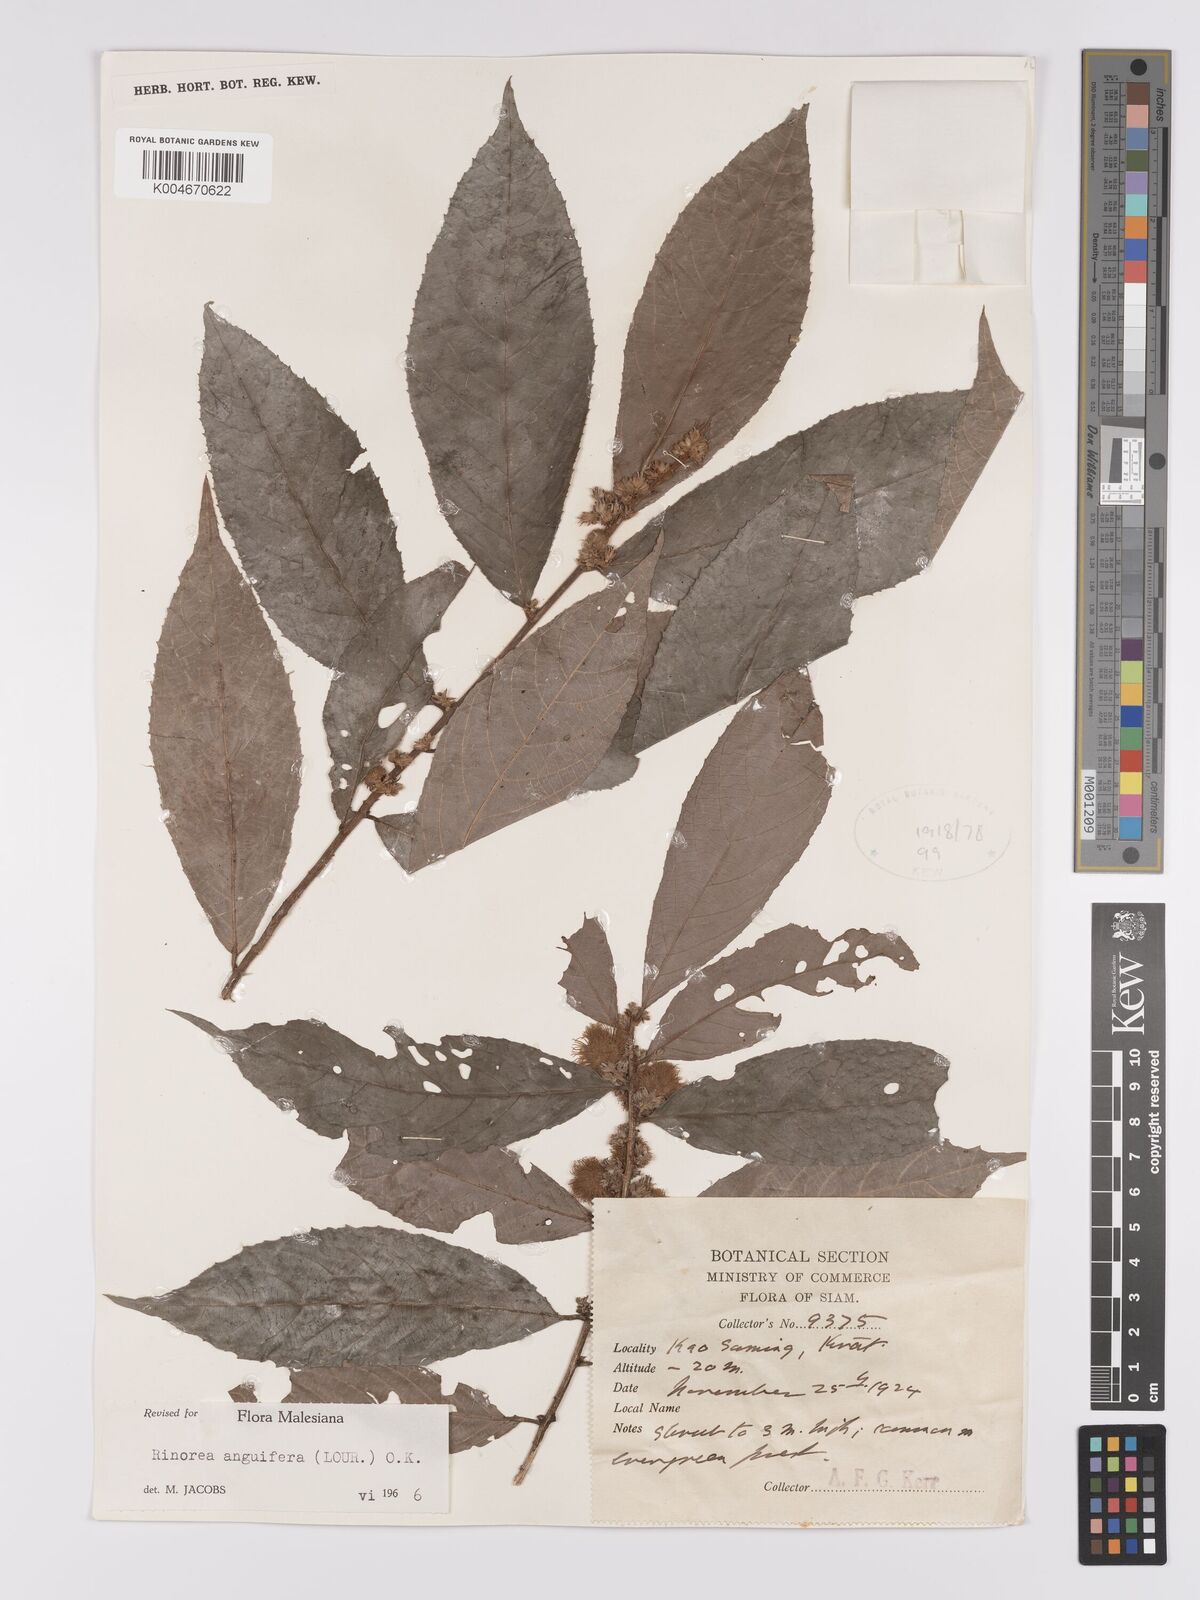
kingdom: Plantae
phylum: Tracheophyta
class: Magnoliopsida
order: Malpighiales
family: Violaceae
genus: Rinorea
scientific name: Rinorea anguifera
